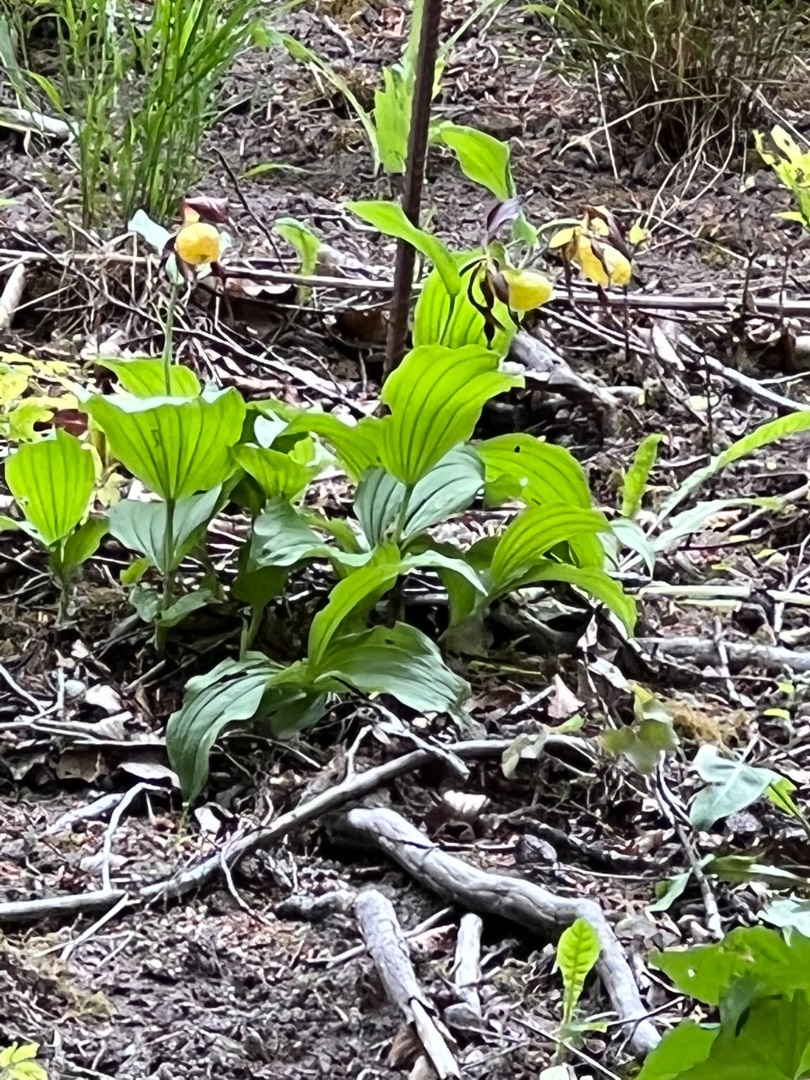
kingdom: Plantae
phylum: Tracheophyta
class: Liliopsida
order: Asparagales
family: Orchidaceae
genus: Cypripedium
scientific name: Cypripedium calceolus
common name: Fruesko
